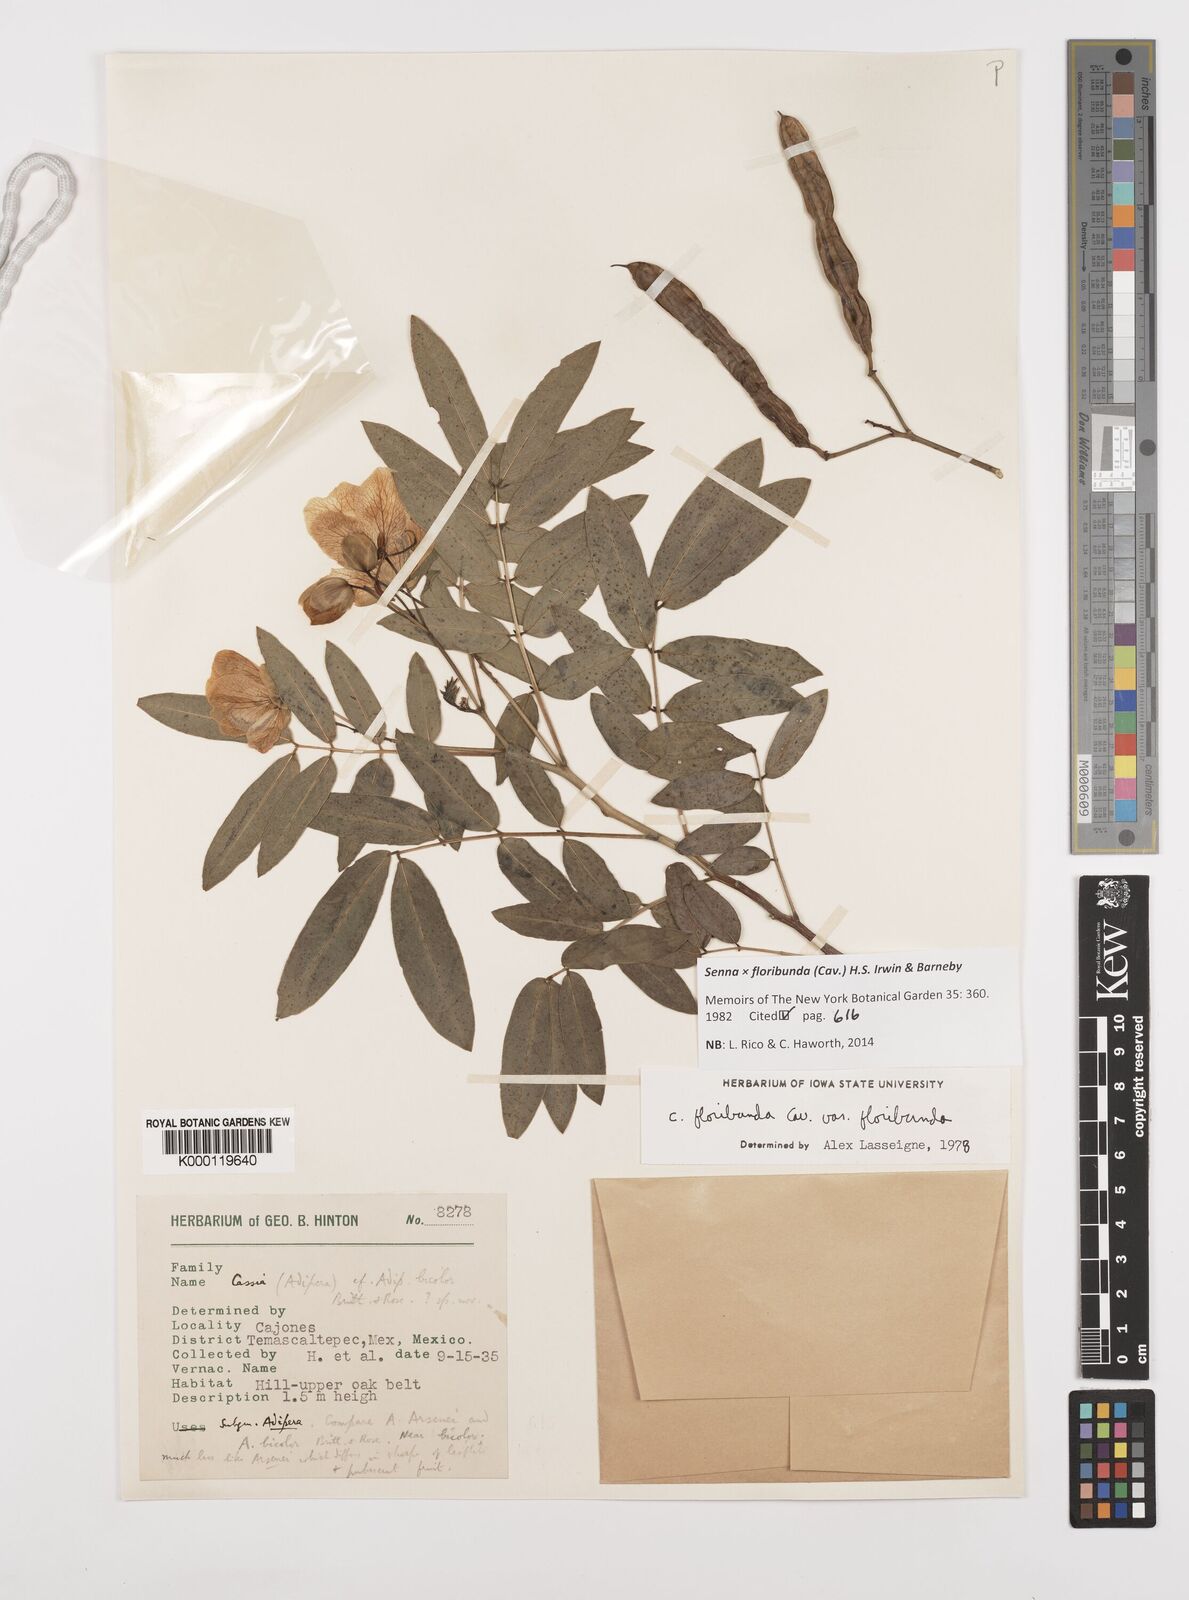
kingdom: Plantae
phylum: Tracheophyta
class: Magnoliopsida
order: Fabales
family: Fabaceae
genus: Senna
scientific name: Senna floribunda
